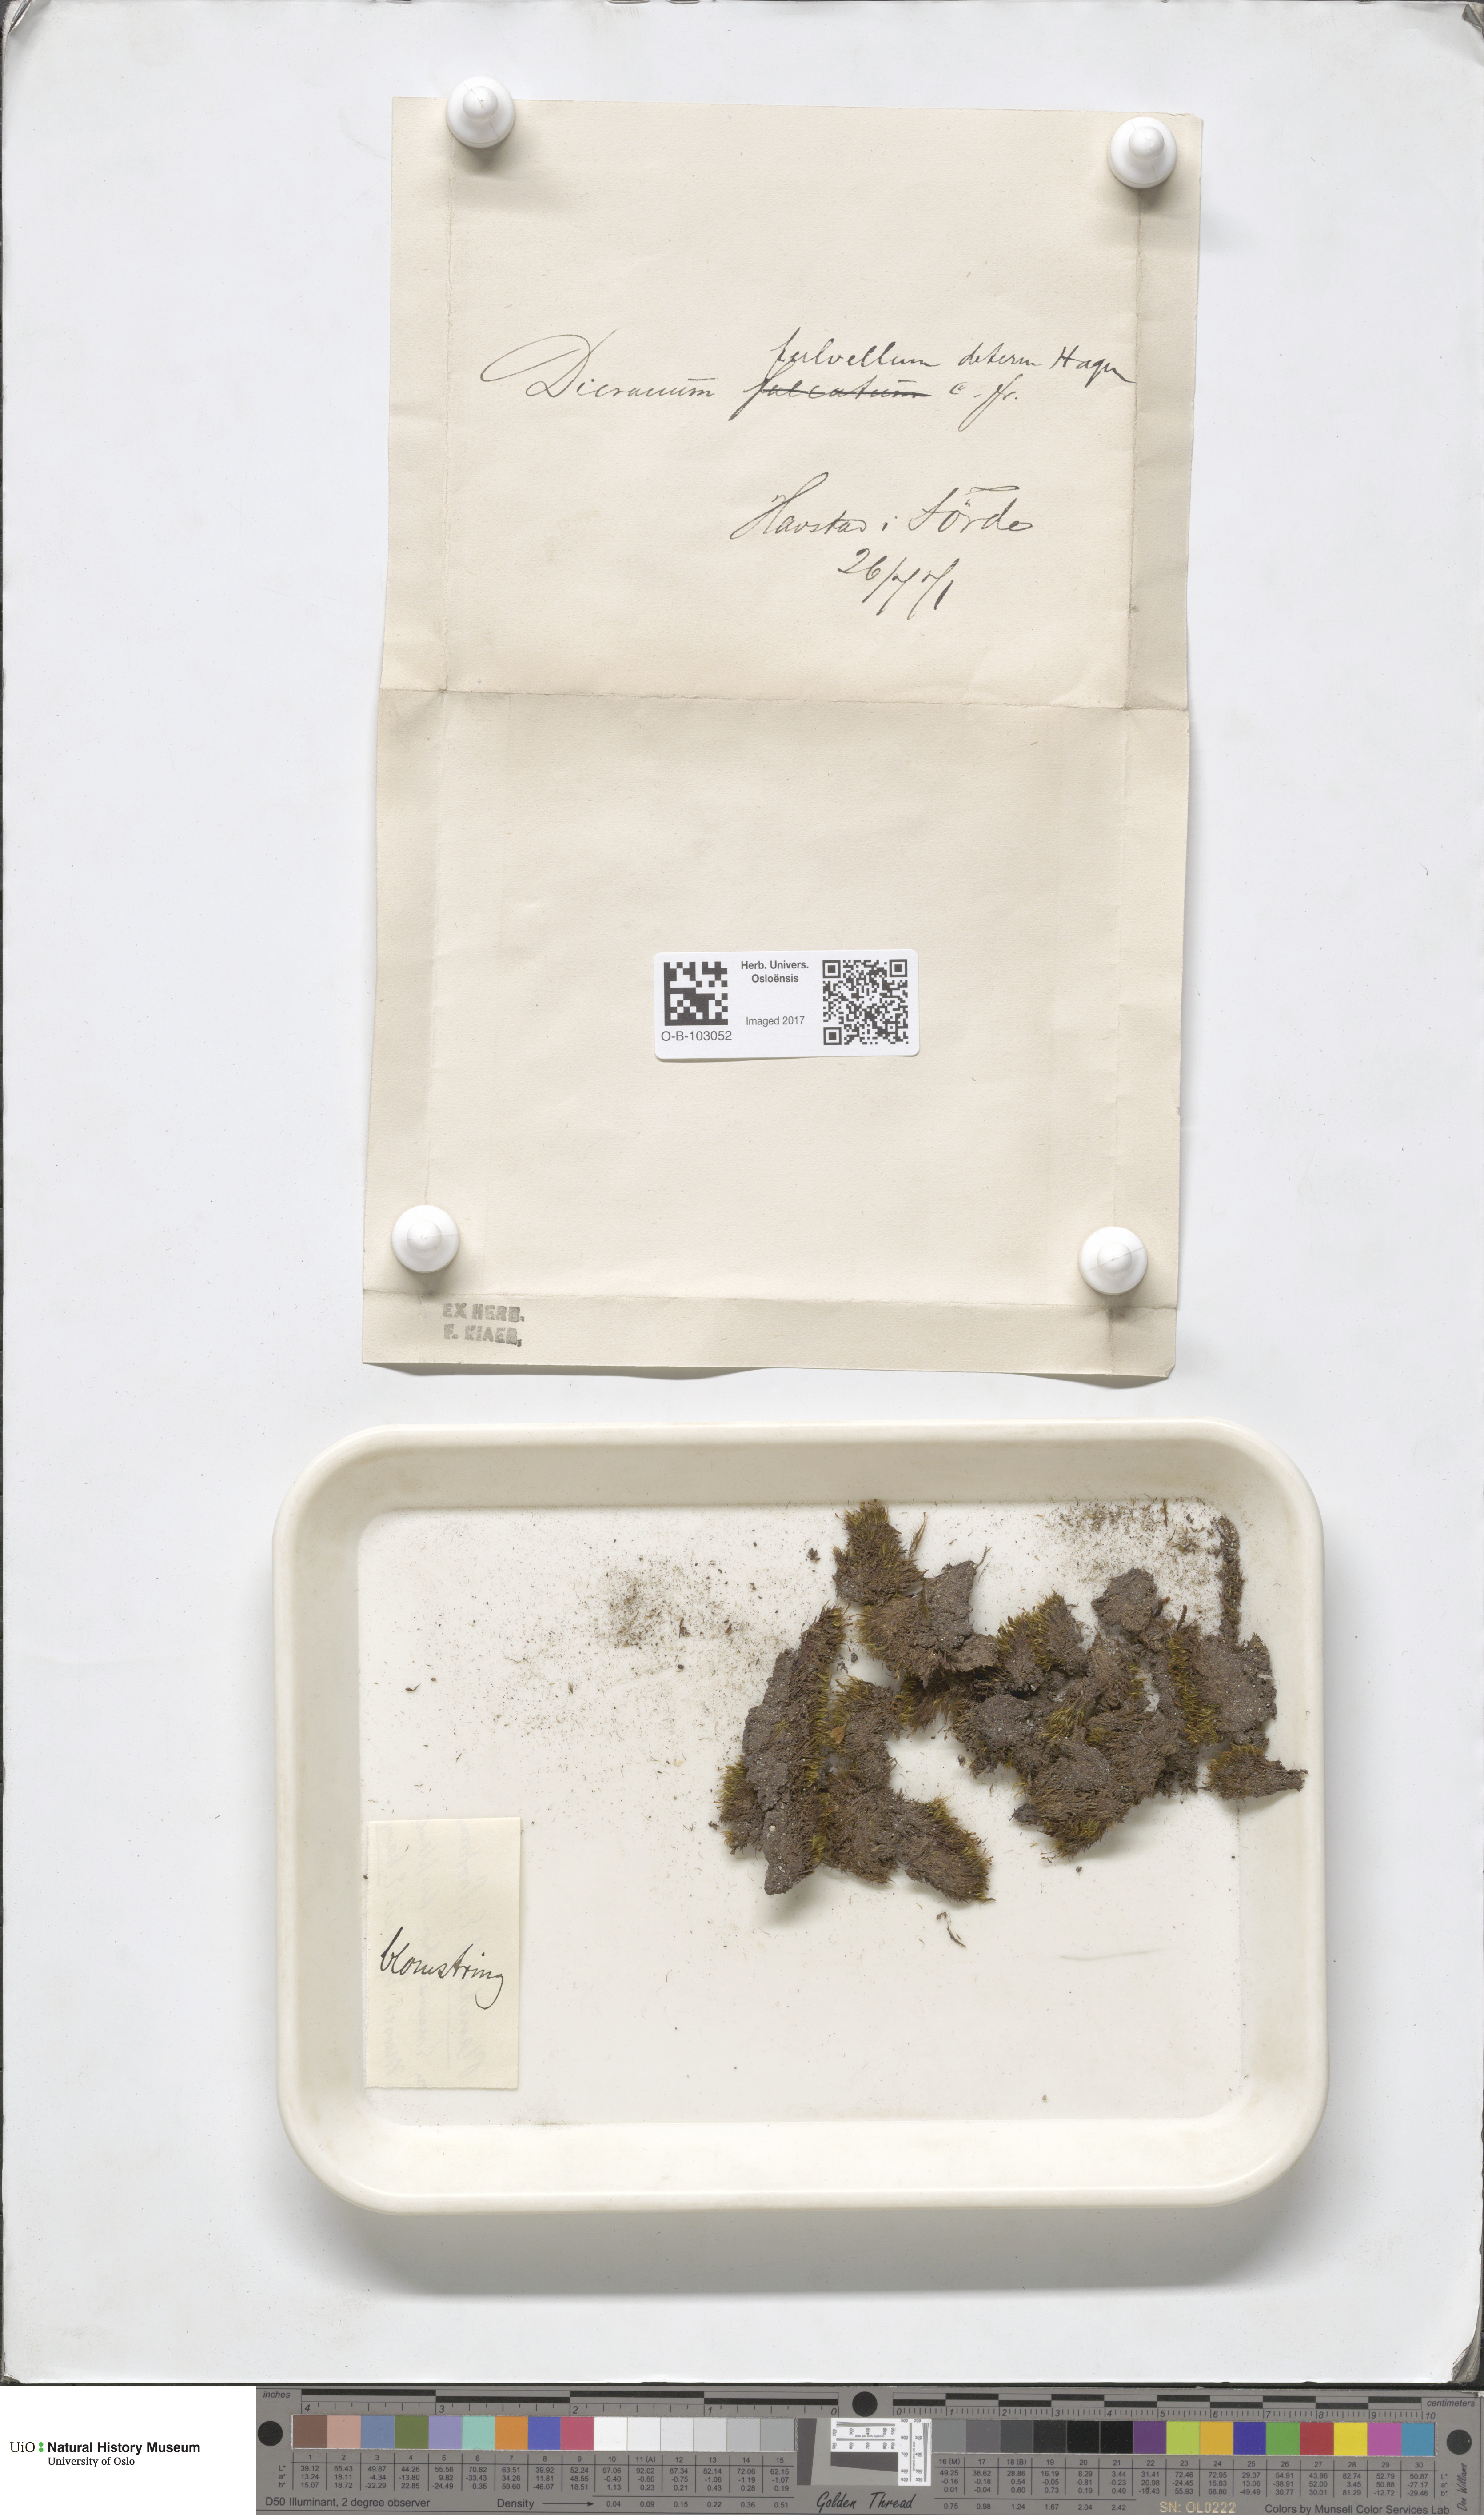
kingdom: Plantae
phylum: Bryophyta
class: Bryopsida
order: Dicranales
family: Rhabdoweisiaceae
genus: Arctoa
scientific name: Arctoa fulvella
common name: Tawny fork moss
